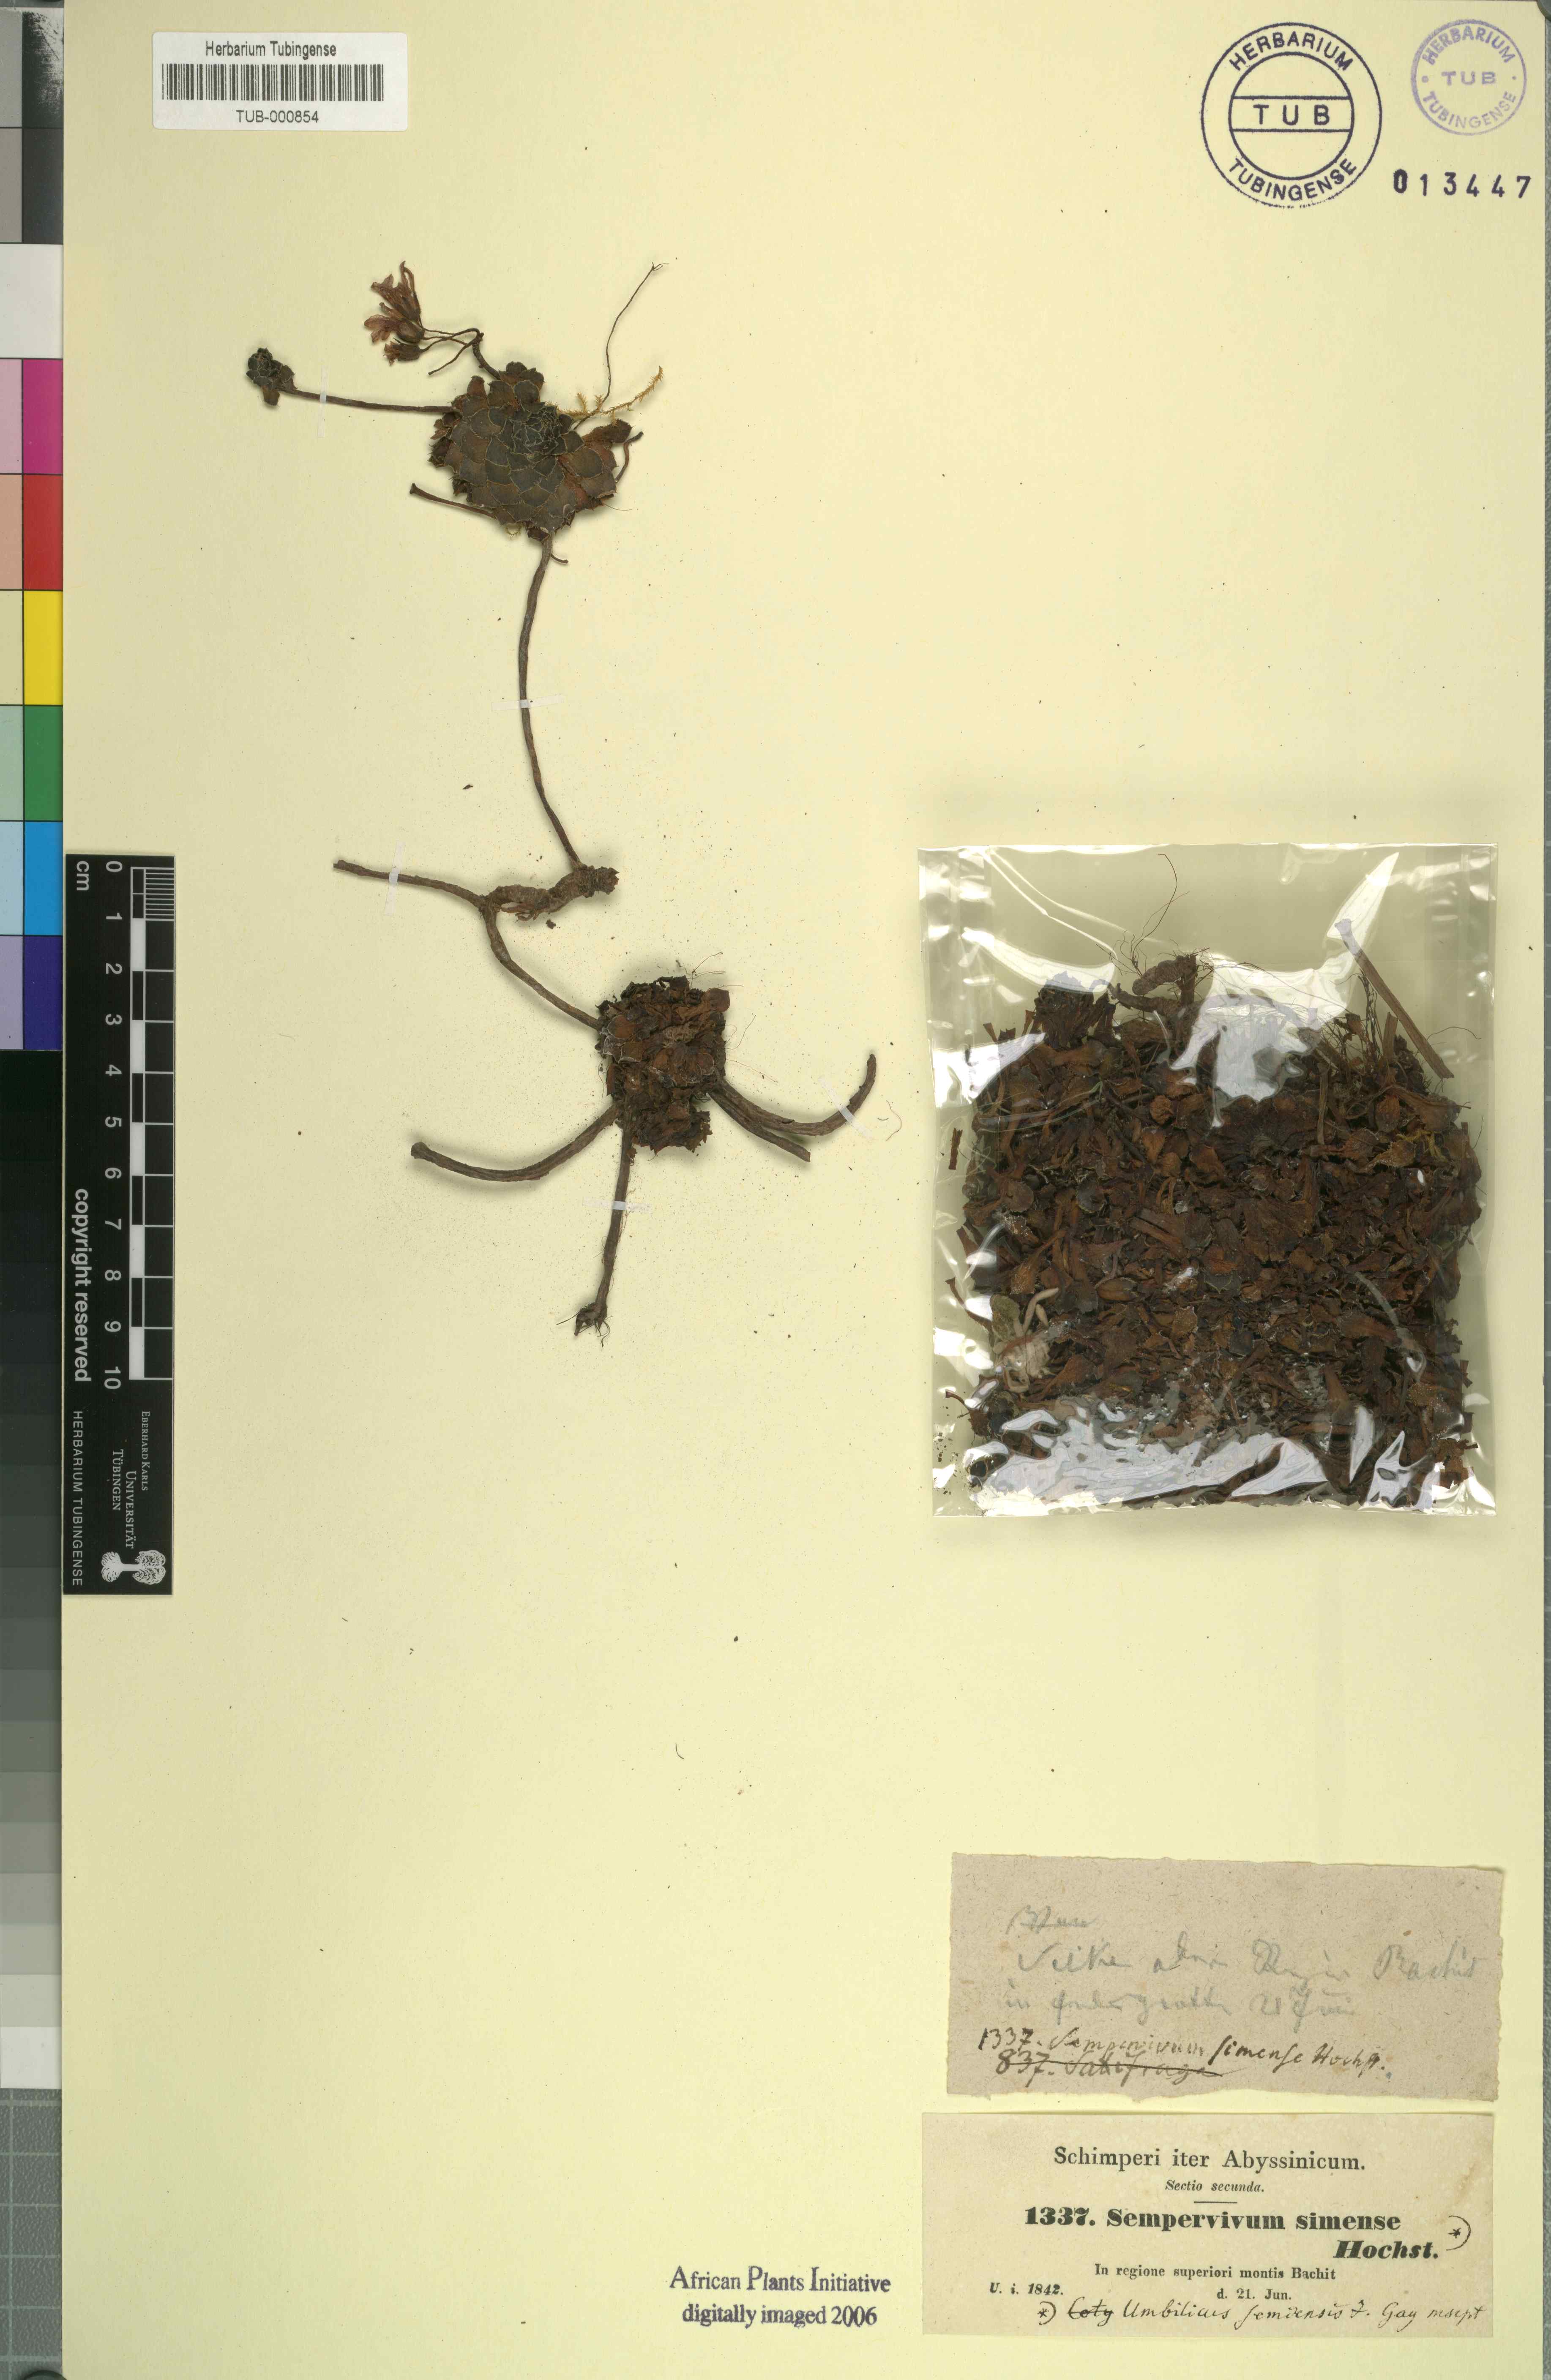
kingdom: Plantae
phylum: Tracheophyta
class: Magnoliopsida
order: Saxifragales
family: Crassulaceae
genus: Afrovivella
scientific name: Afrovivella semiensis
